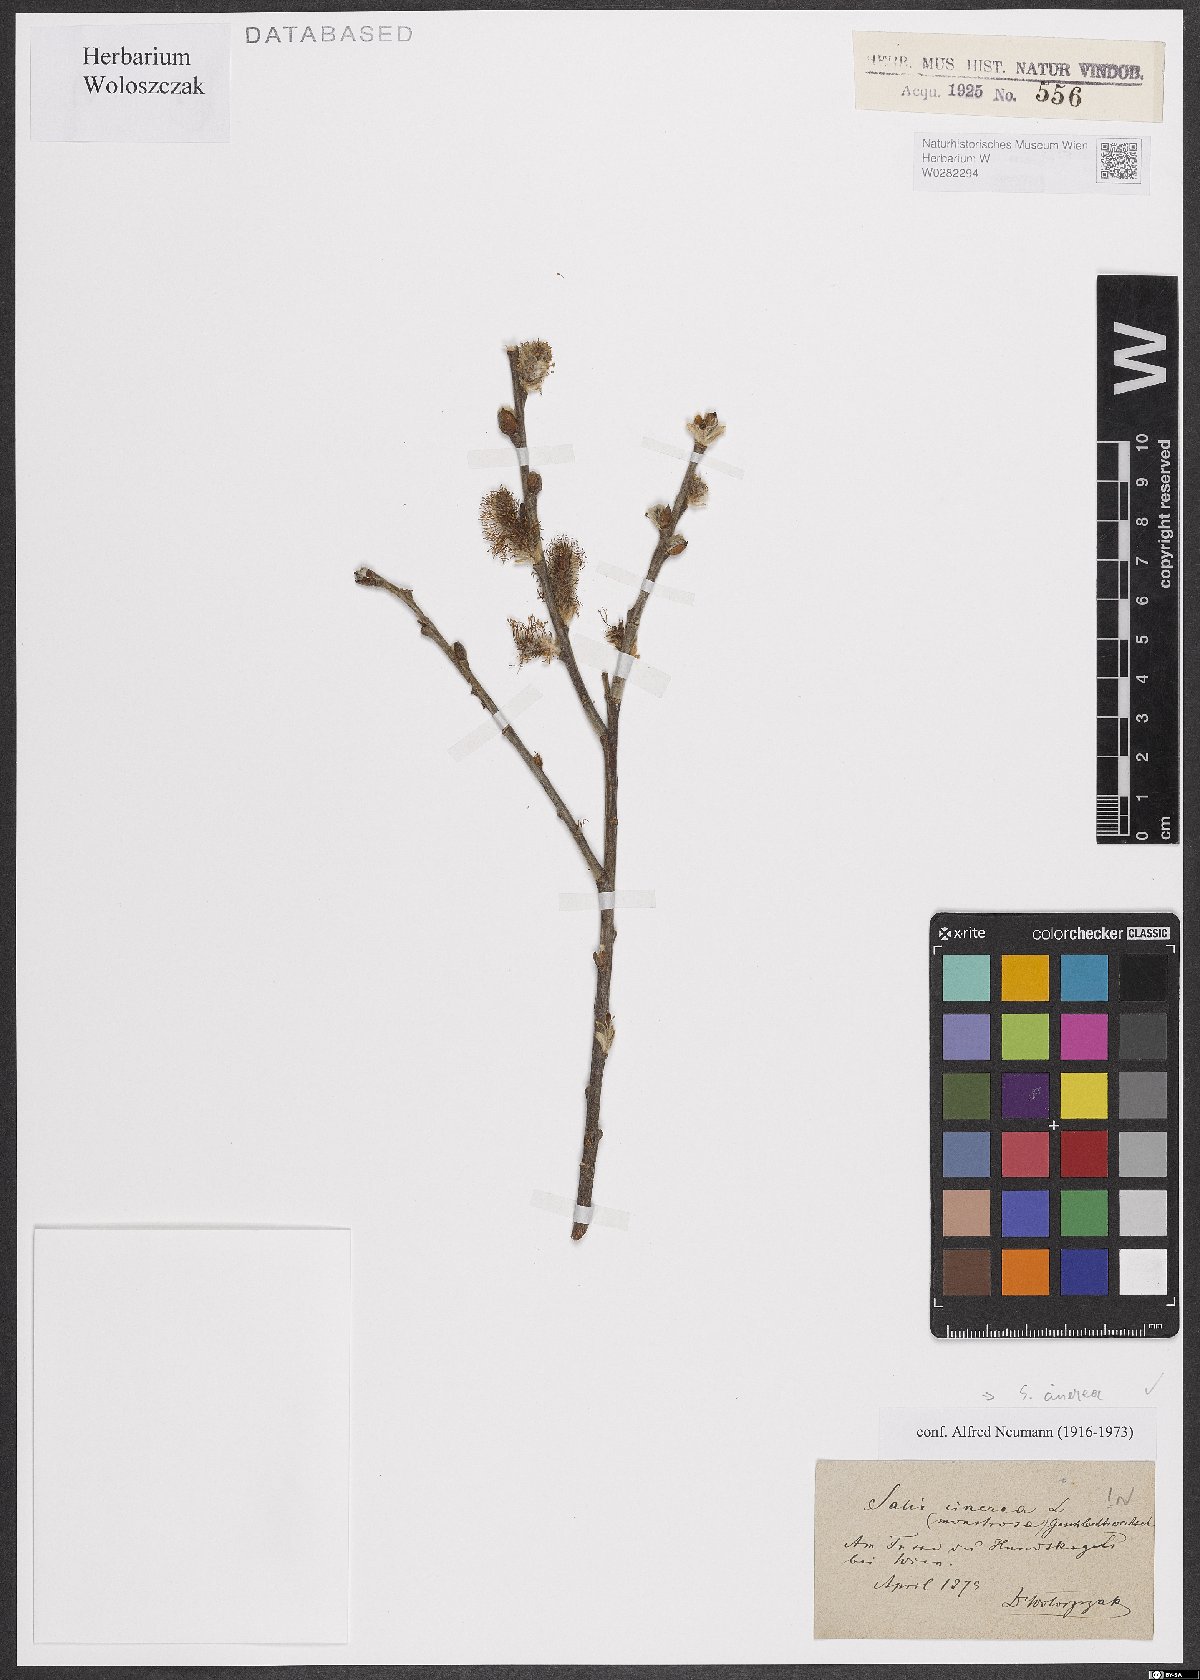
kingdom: Plantae
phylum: Tracheophyta
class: Magnoliopsida
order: Malpighiales
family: Salicaceae
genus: Salix
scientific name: Salix cinerea
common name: Common sallow
